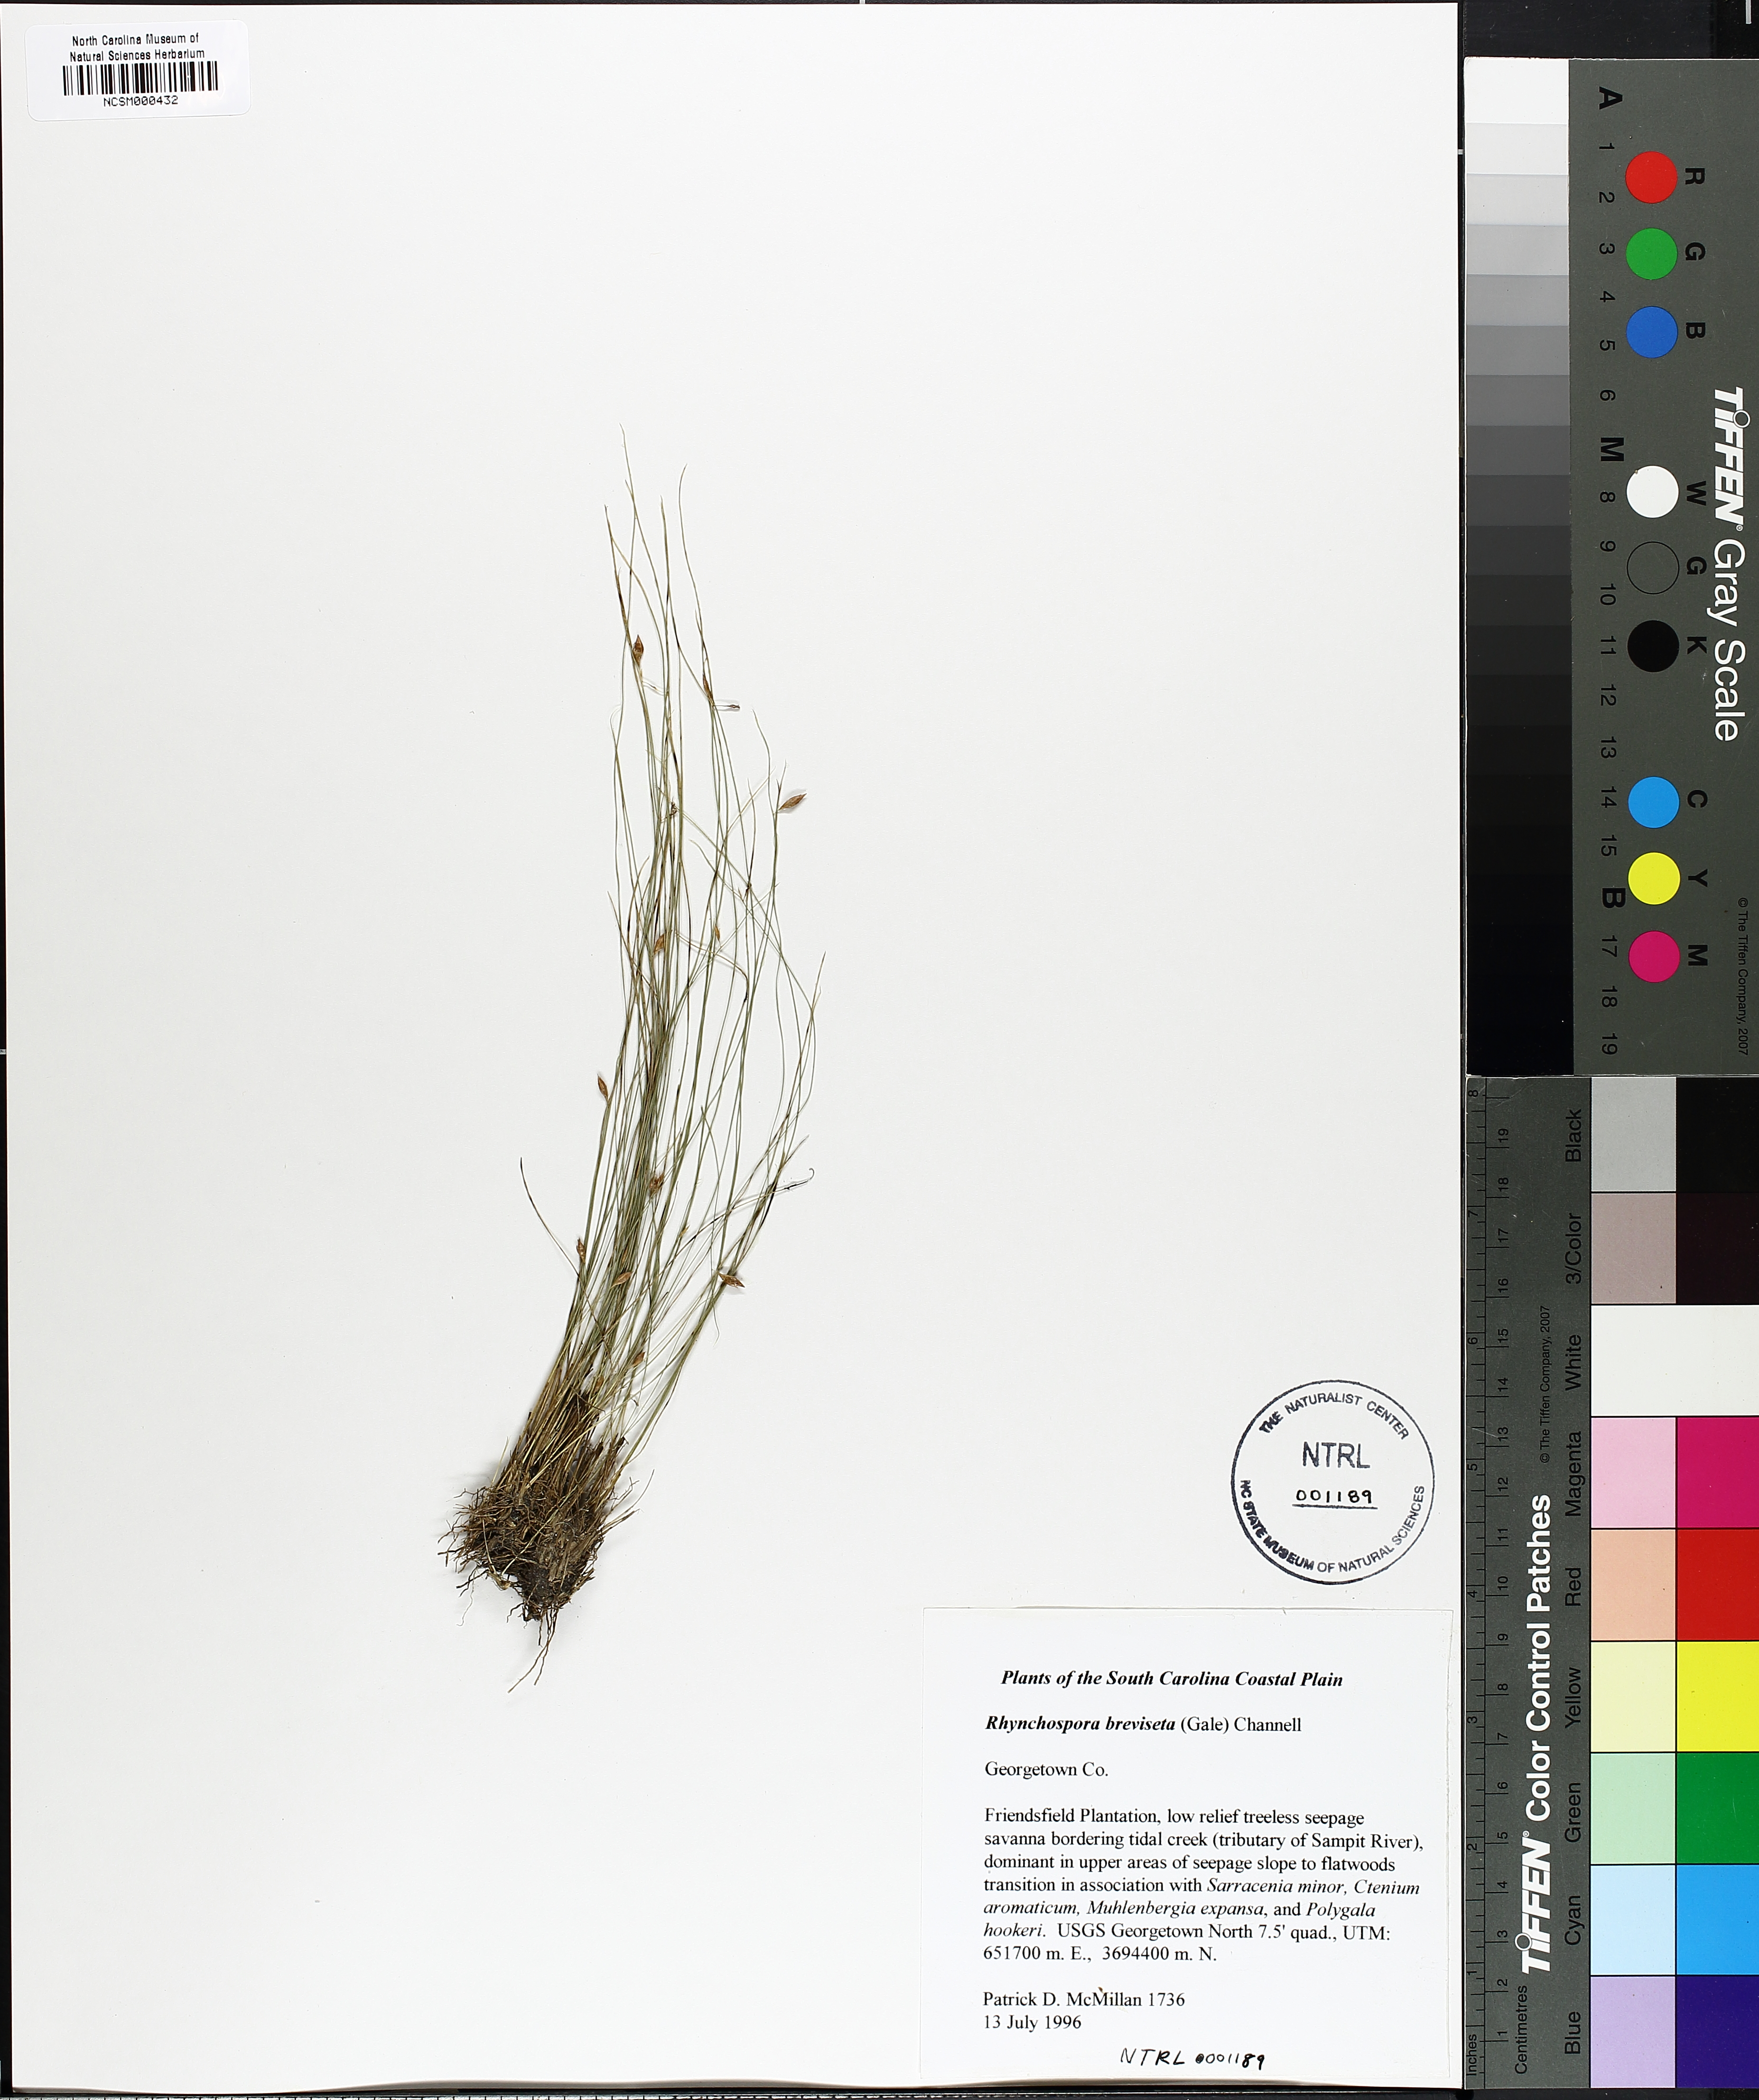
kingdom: Plantae
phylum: Tracheophyta
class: Liliopsida
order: Poales
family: Cyperaceae
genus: Rhynchospora
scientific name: Rhynchospora galeana
